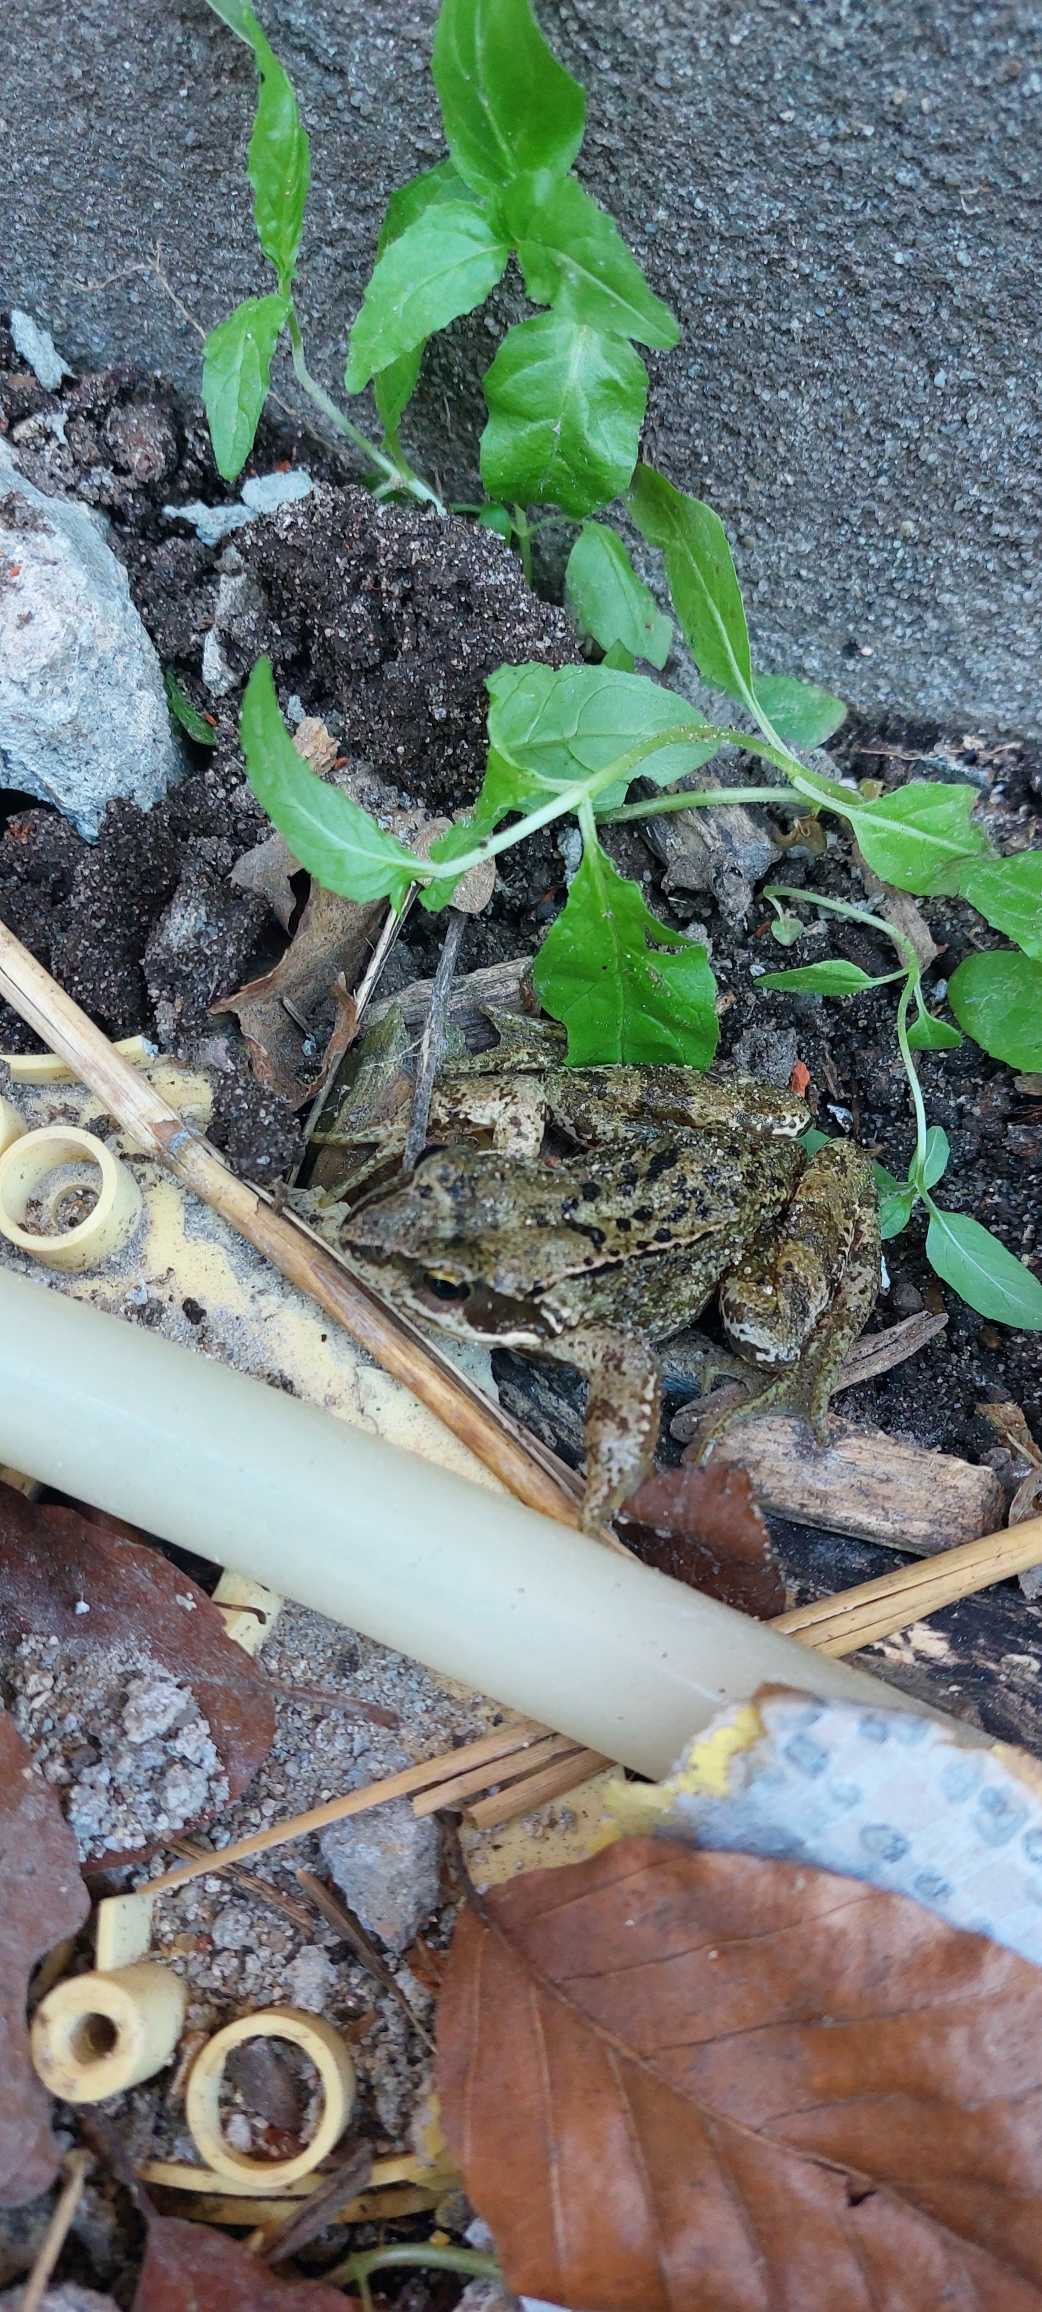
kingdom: Animalia
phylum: Chordata
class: Amphibia
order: Anura
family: Ranidae
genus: Rana
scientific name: Rana temporaria
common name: Butsnudet frø
